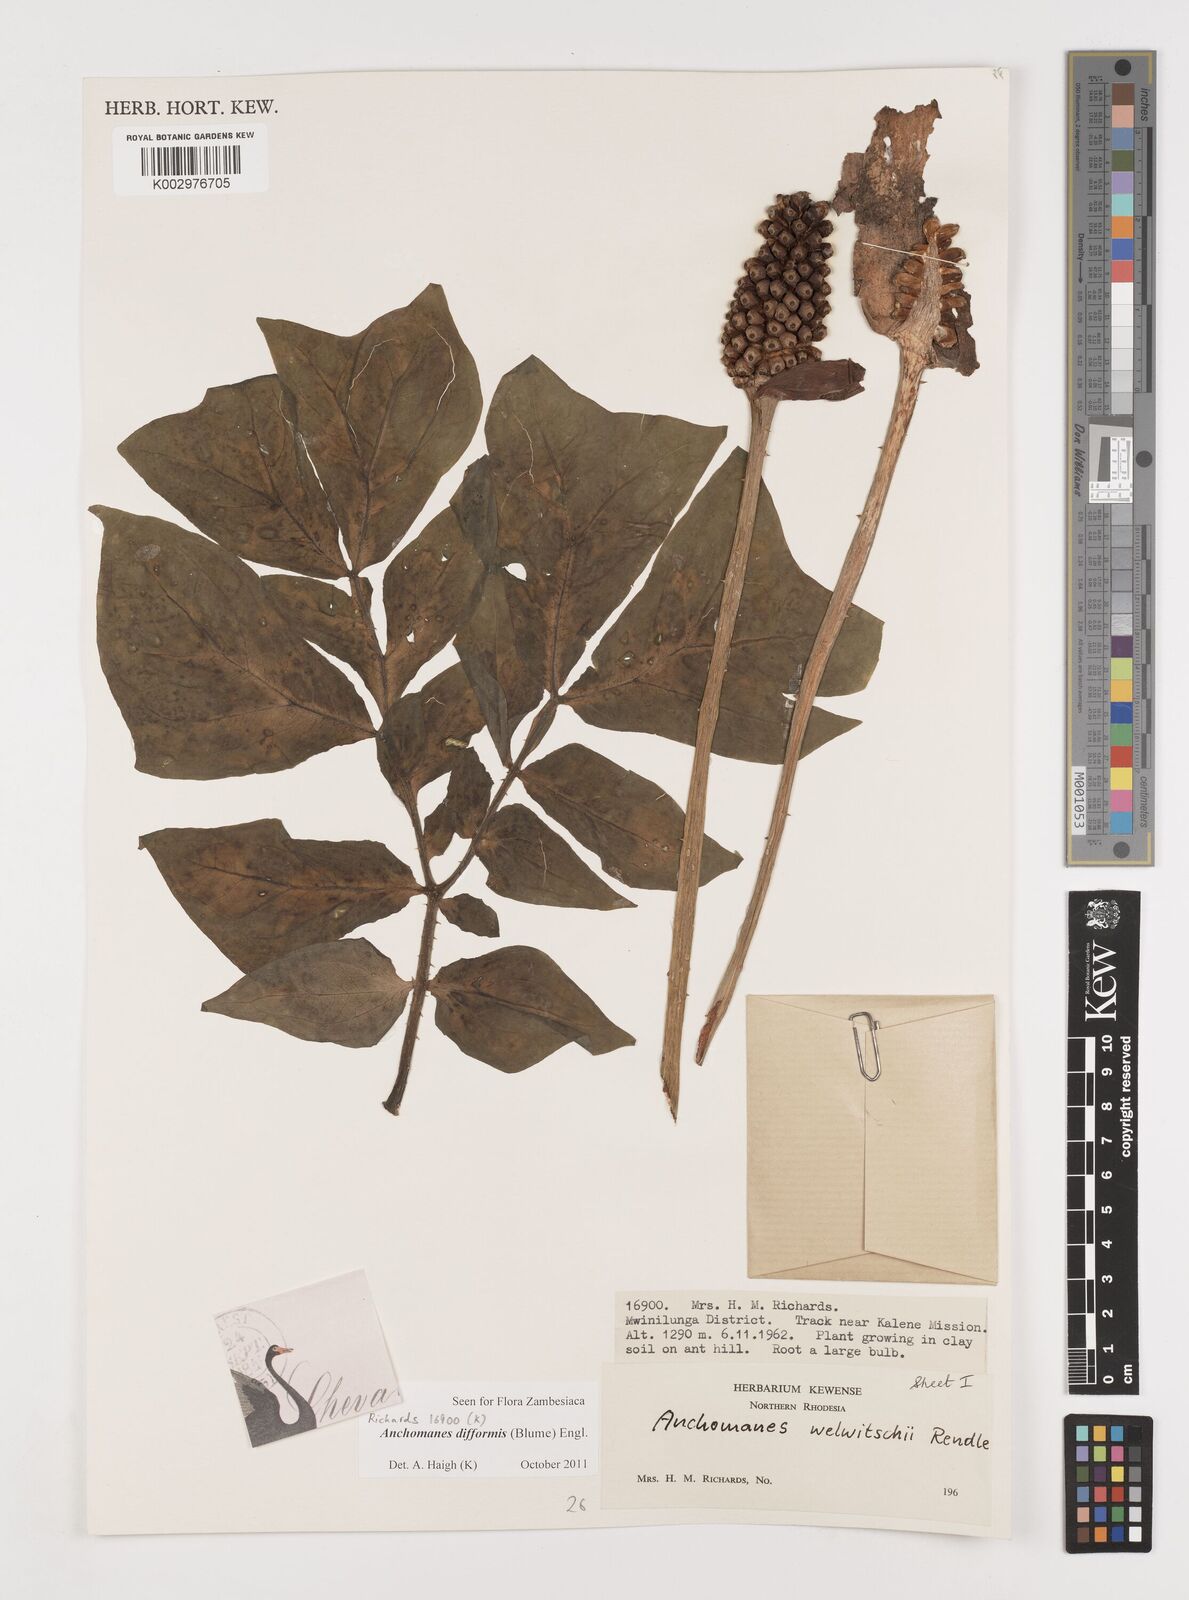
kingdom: Plantae
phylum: Tracheophyta
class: Liliopsida
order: Alismatales
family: Araceae
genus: Anchomanes
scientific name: Anchomanes difformis
